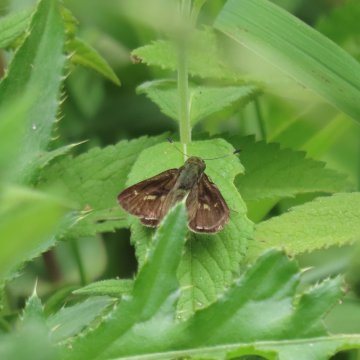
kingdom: Animalia
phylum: Arthropoda
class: Insecta
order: Lepidoptera
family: Hesperiidae
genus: Vernia
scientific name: Vernia verna
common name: Little Glassywing
